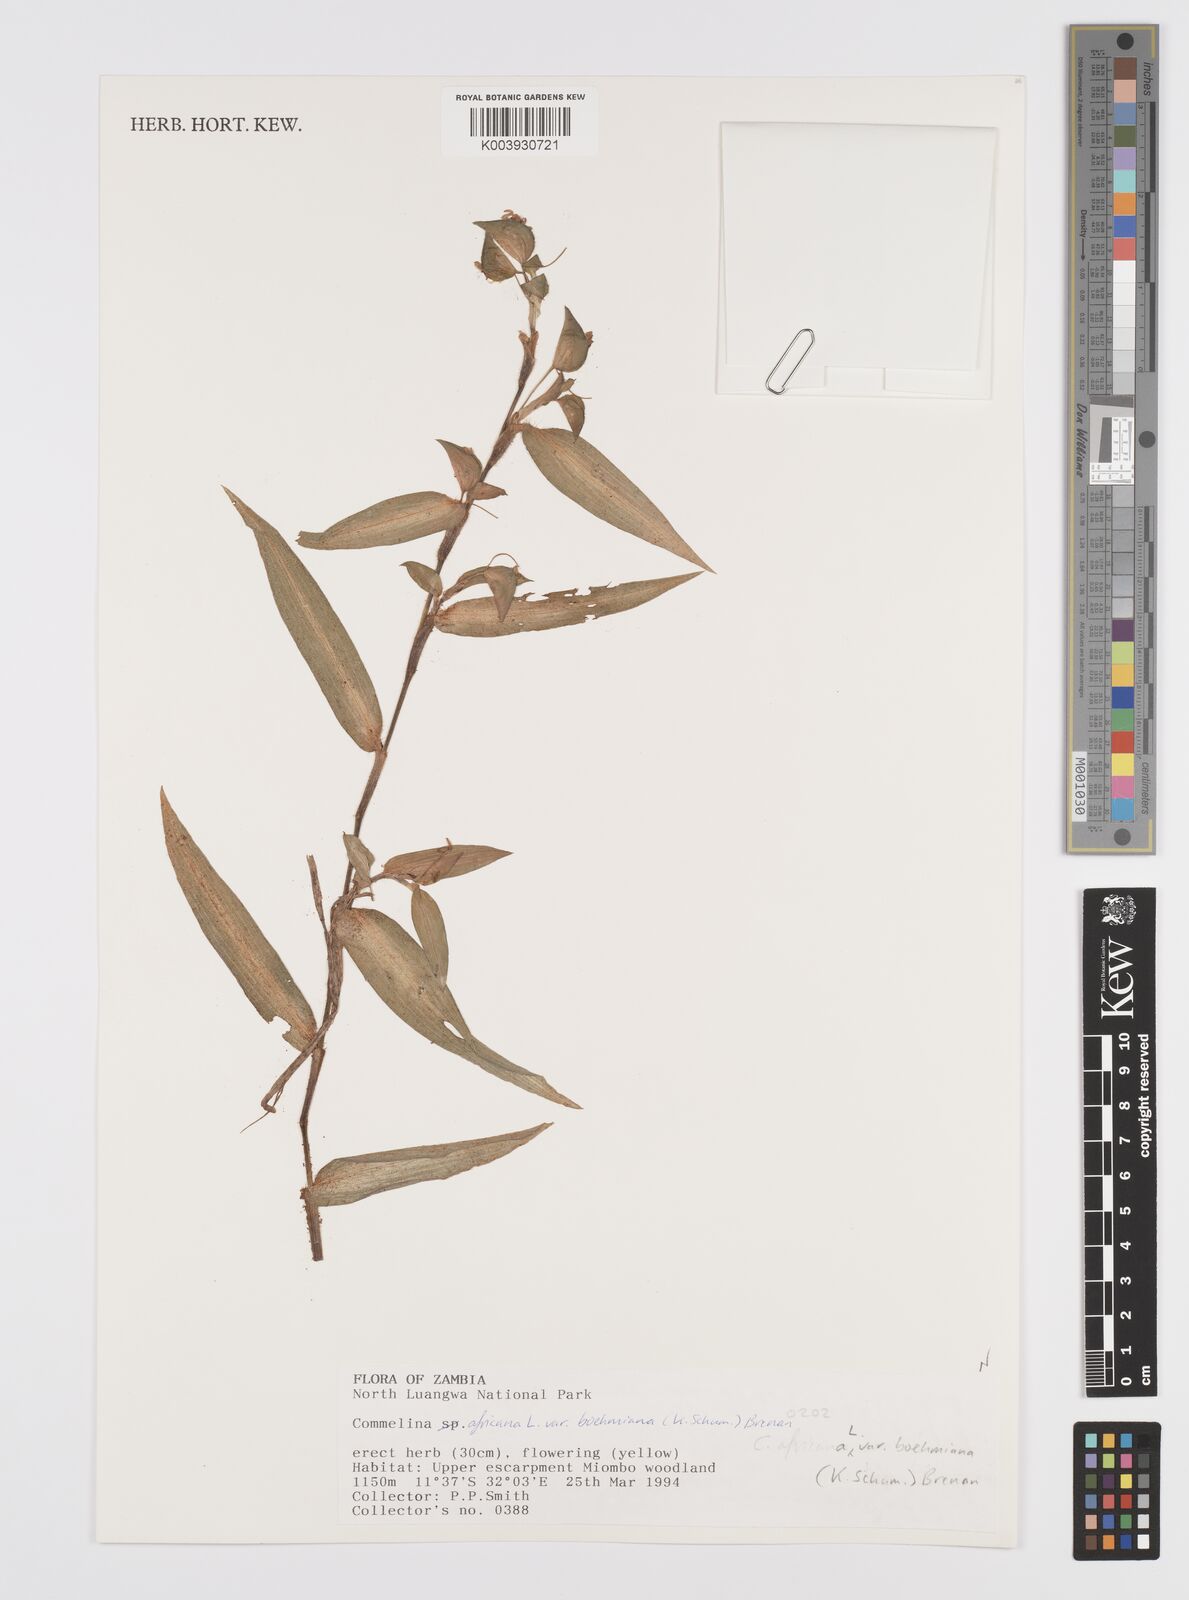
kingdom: Plantae
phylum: Tracheophyta
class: Liliopsida
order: Commelinales
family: Commelinaceae
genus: Commelina
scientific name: Commelina africana
